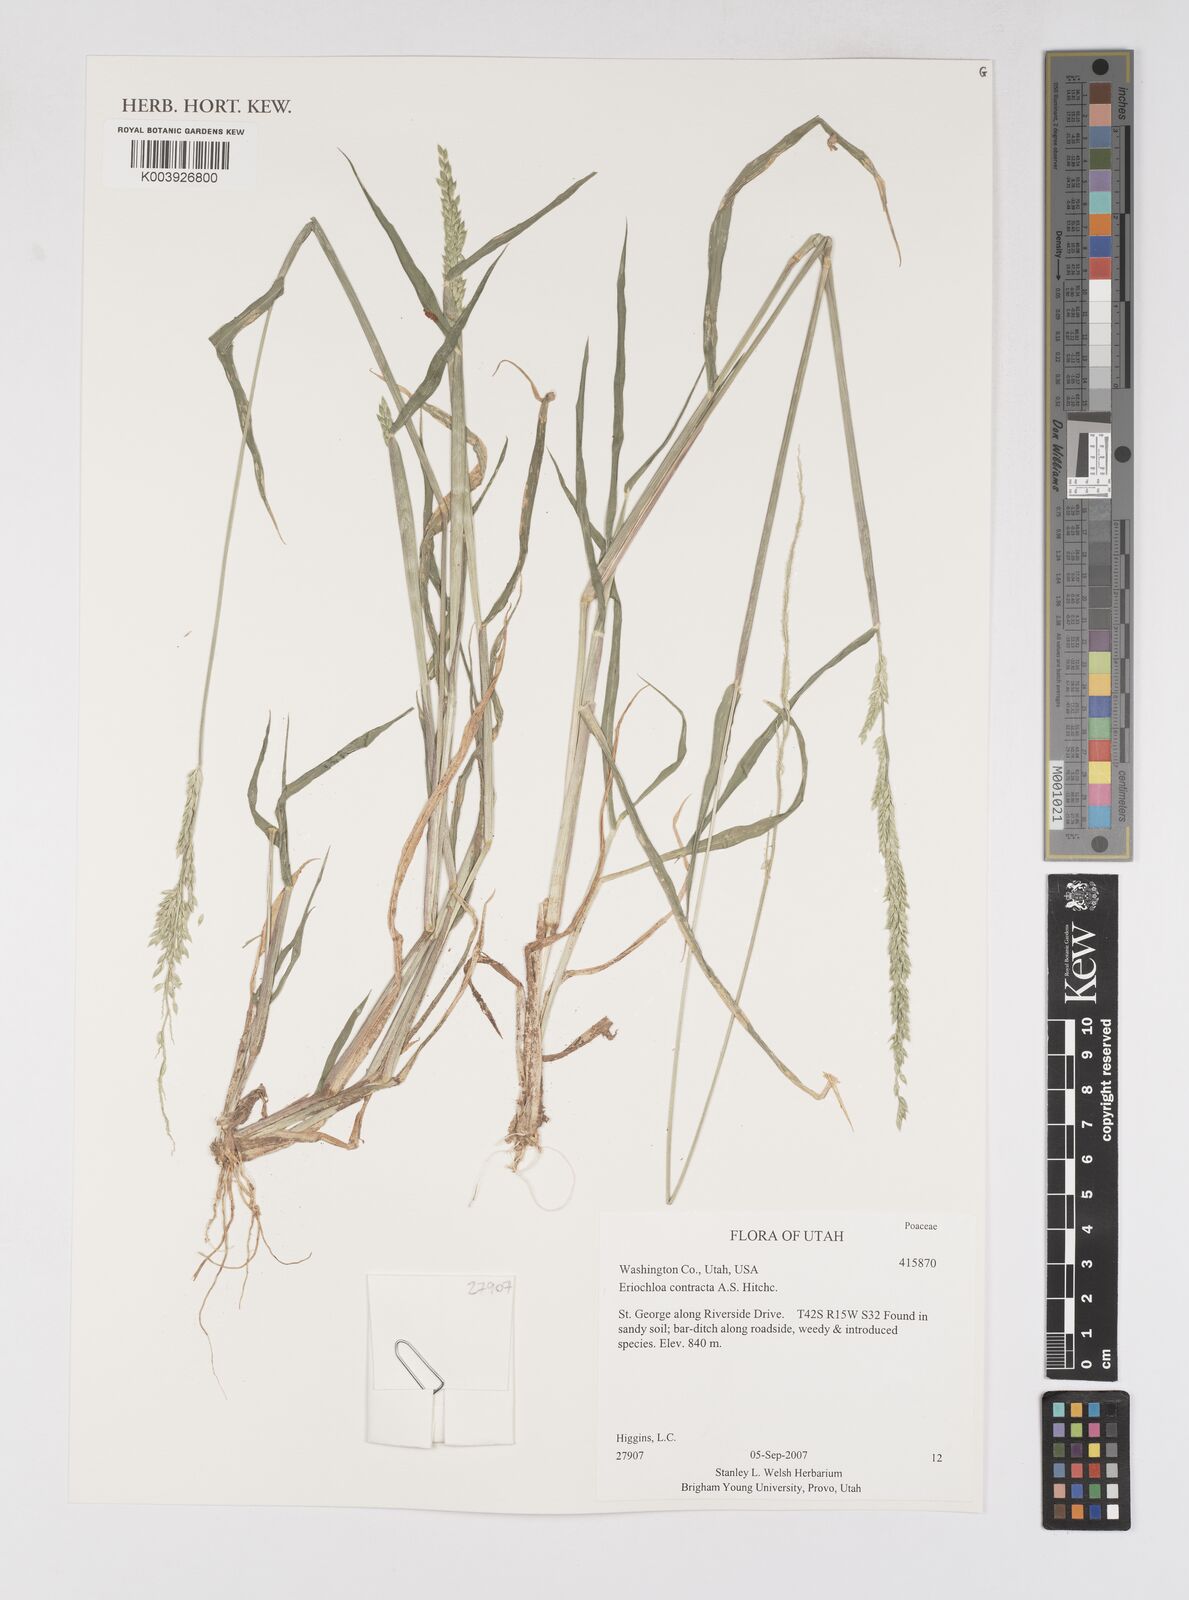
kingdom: Plantae
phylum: Tracheophyta
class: Liliopsida
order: Poales
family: Poaceae
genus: Eriochloa
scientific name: Eriochloa contracta
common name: Prairie cup grass
